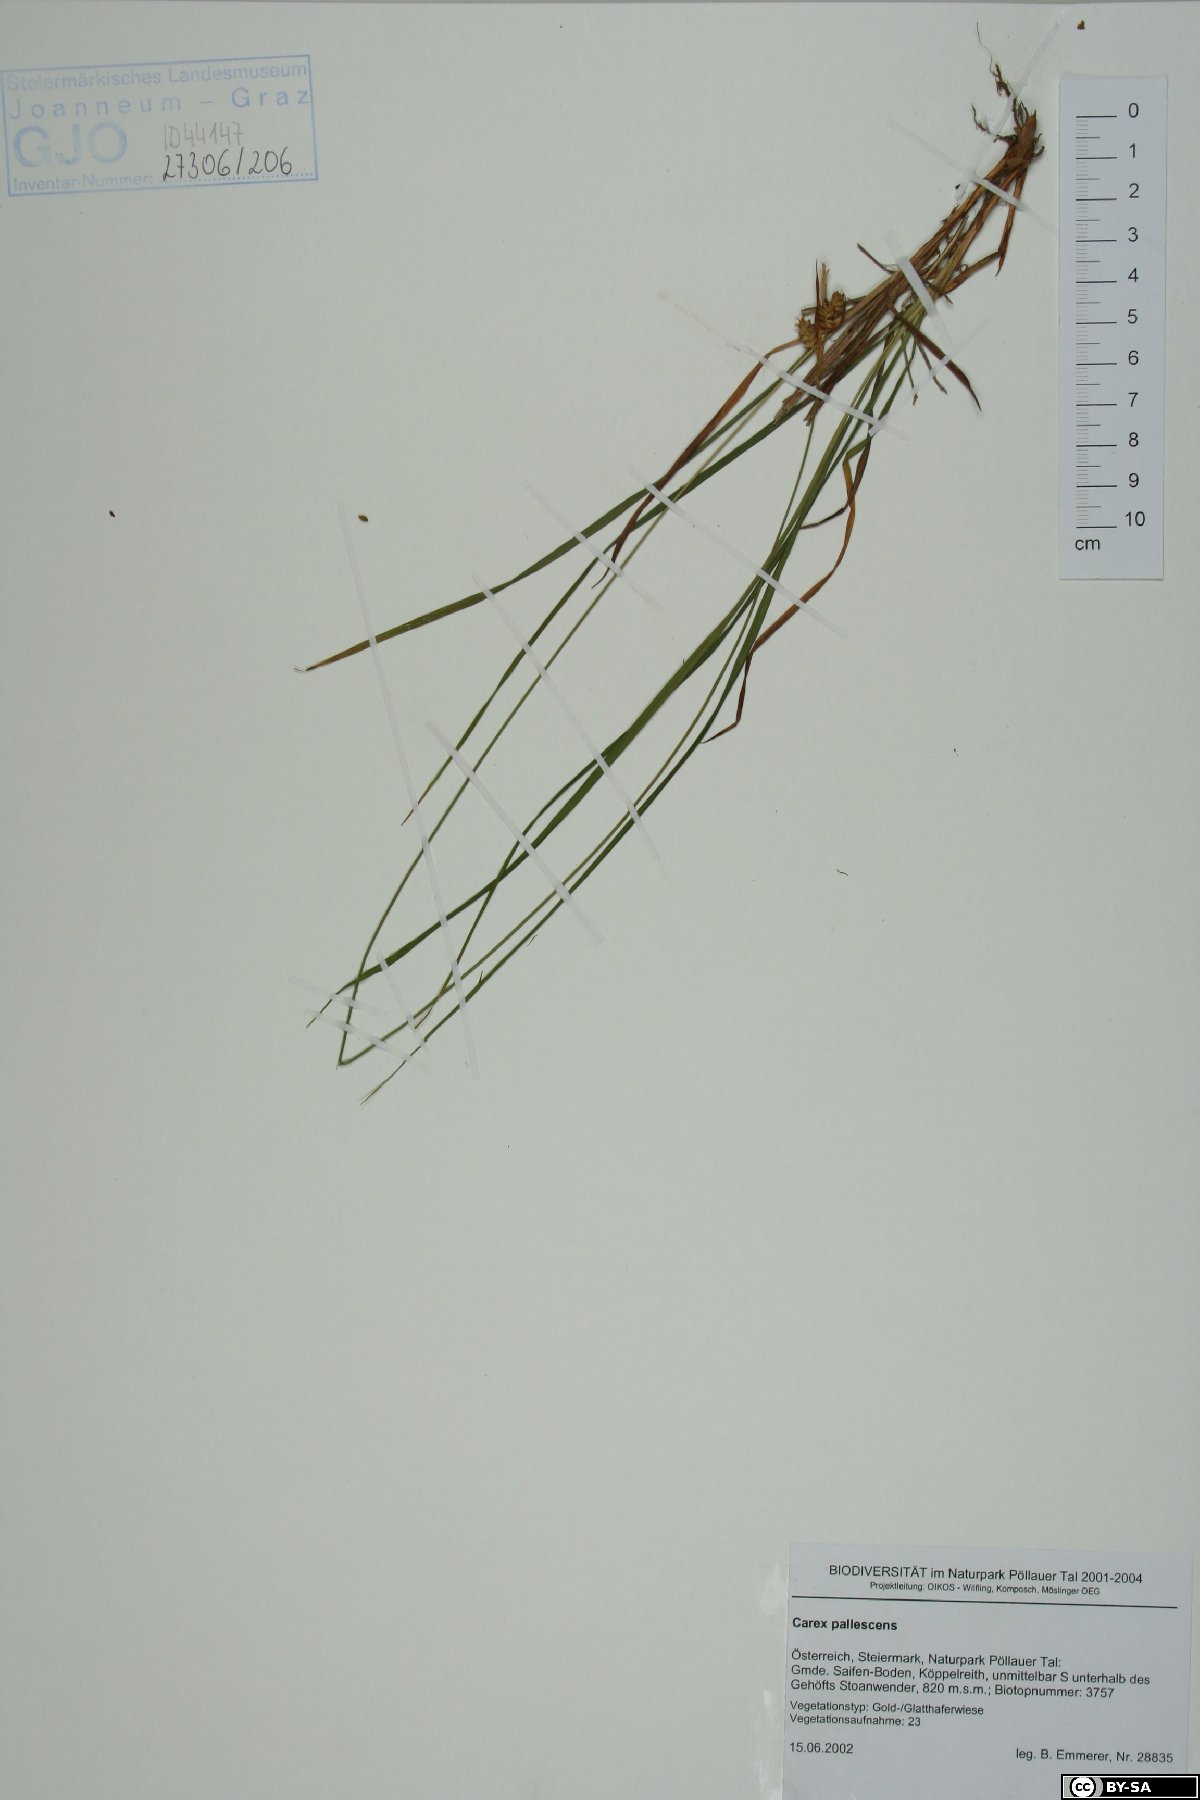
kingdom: Plantae
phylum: Tracheophyta
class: Liliopsida
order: Poales
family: Cyperaceae
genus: Carex
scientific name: Carex pallescens
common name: Pale sedge
